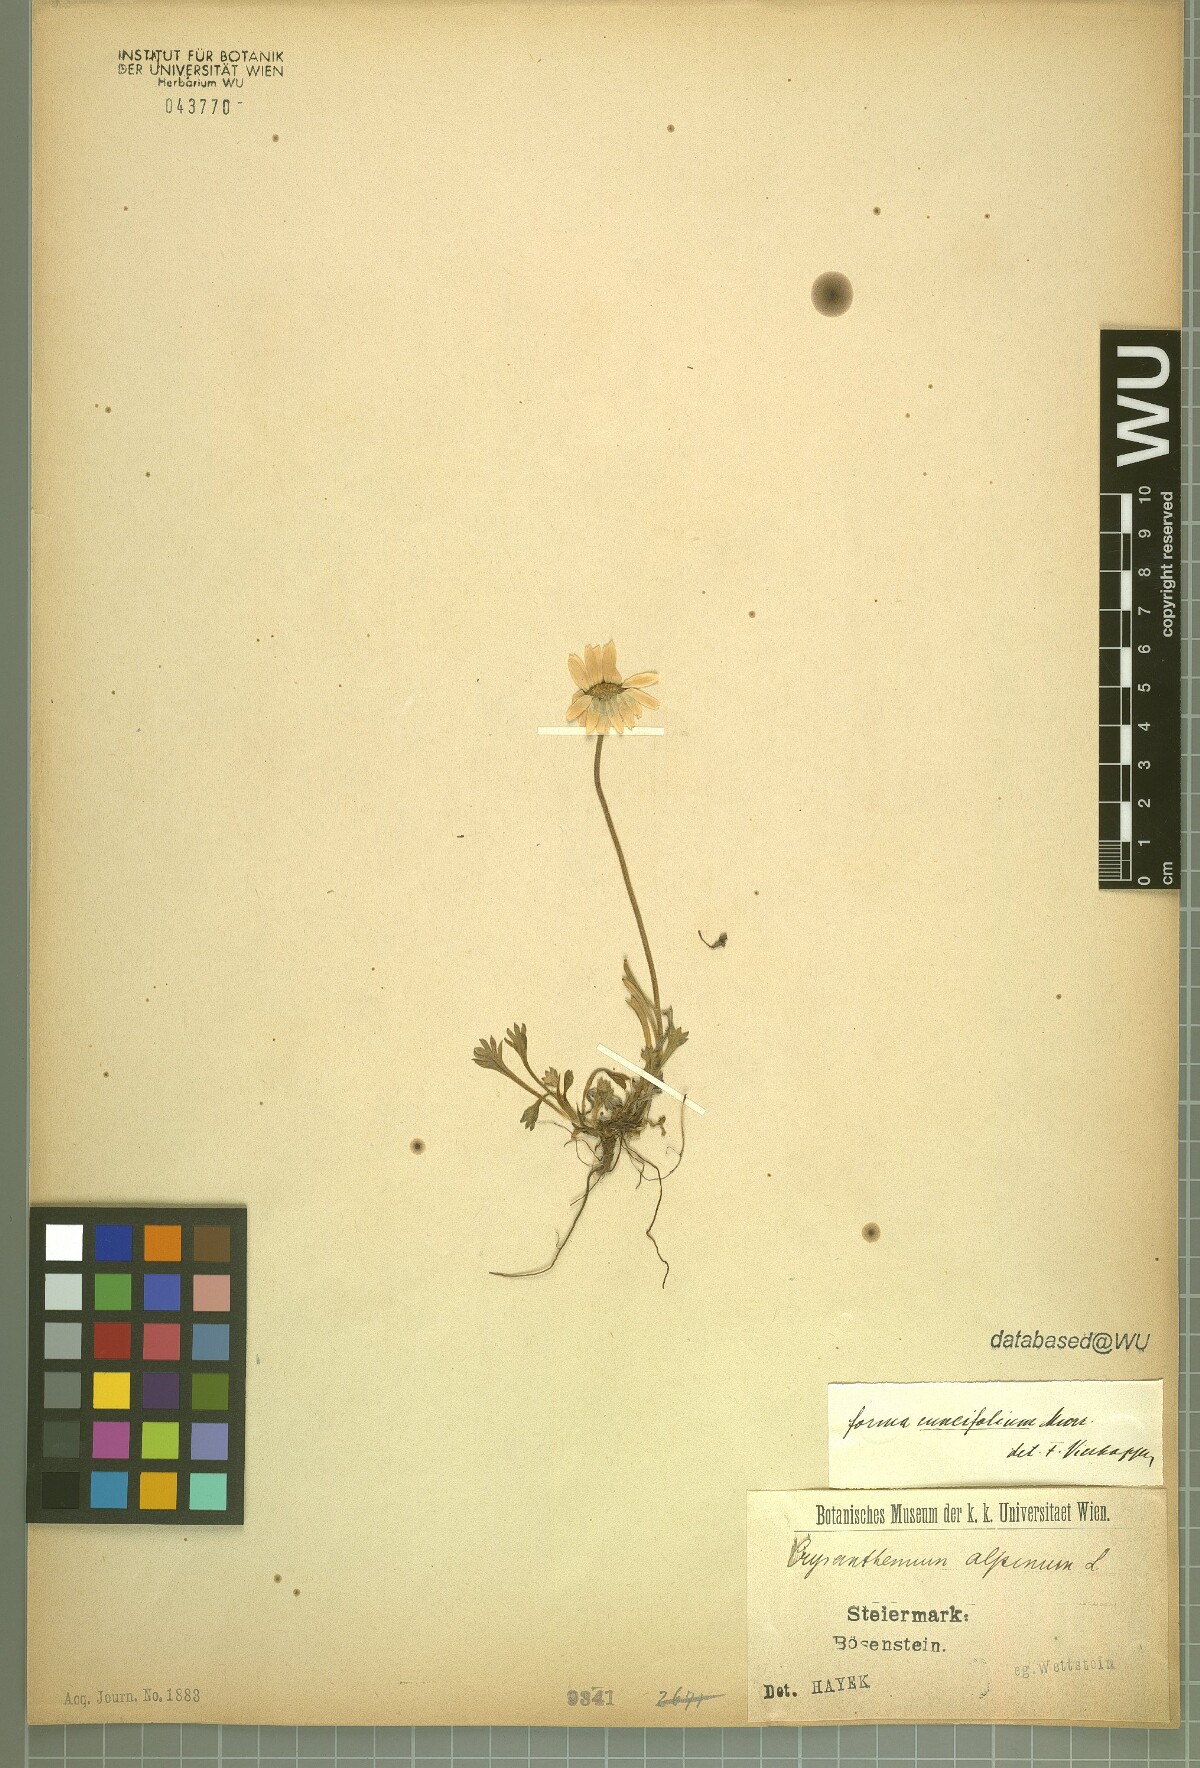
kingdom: Plantae
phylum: Tracheophyta
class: Magnoliopsida
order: Asterales
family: Asteraceae
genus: Leucanthemopsis
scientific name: Leucanthemopsis alpina
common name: Alpine moon daisy
